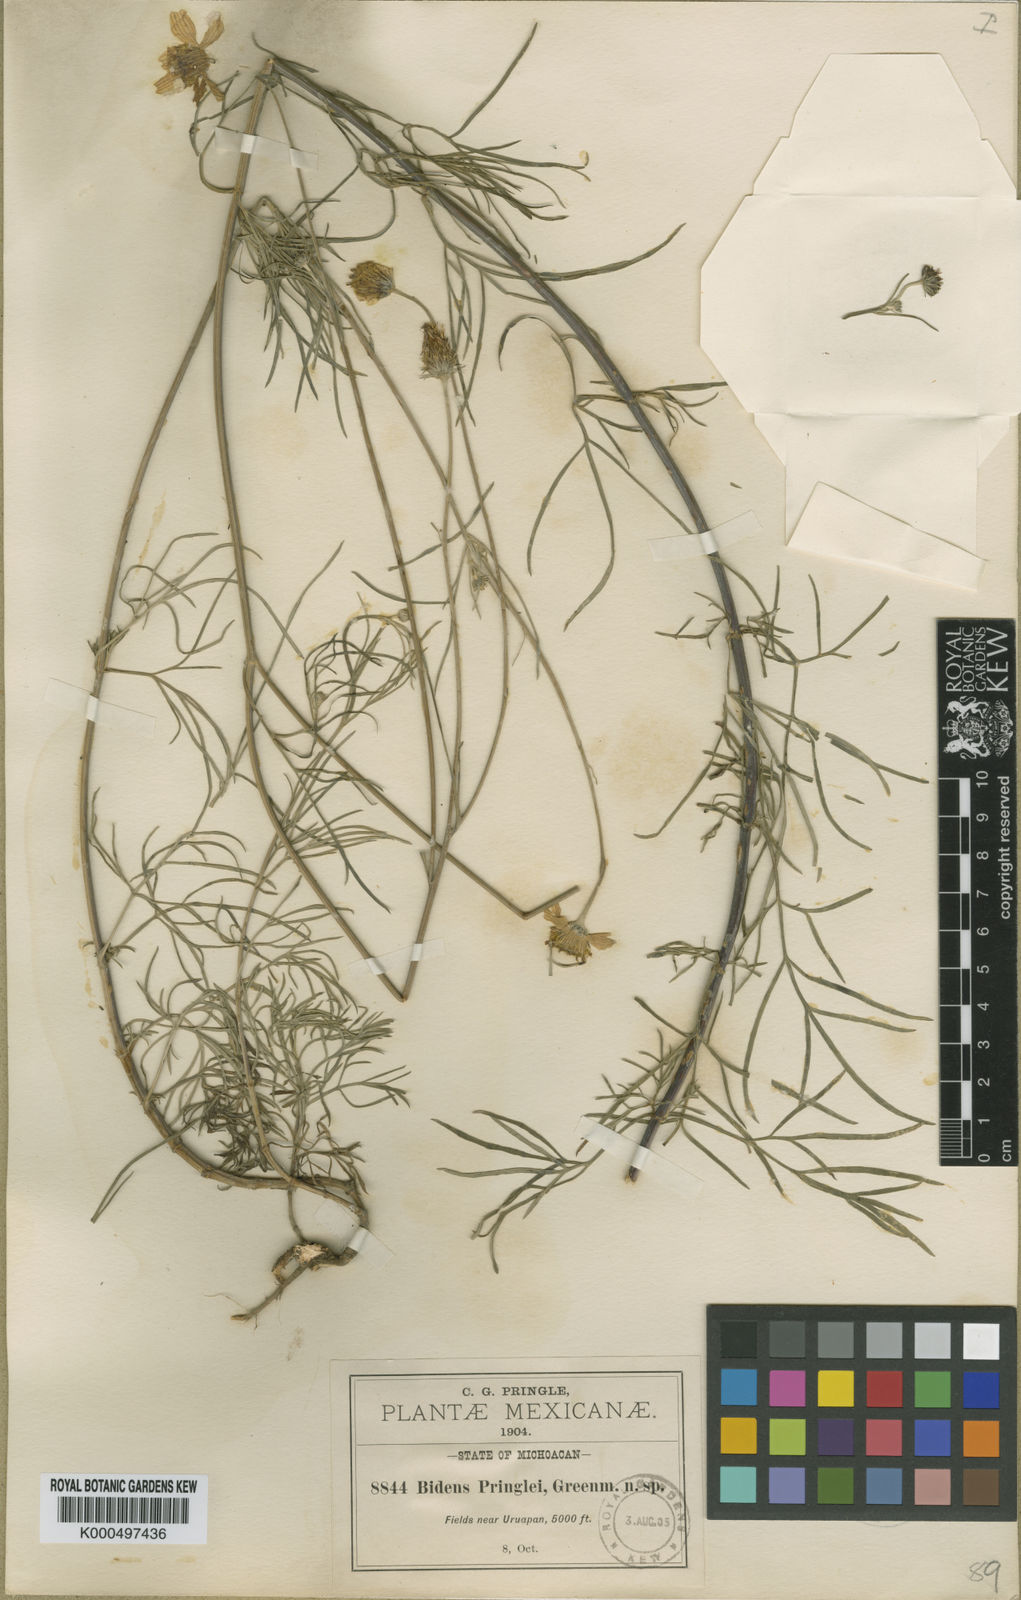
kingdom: Plantae
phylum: Tracheophyta
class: Magnoliopsida
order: Asterales
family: Asteraceae
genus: Bidens
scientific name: Bidens pringlei
